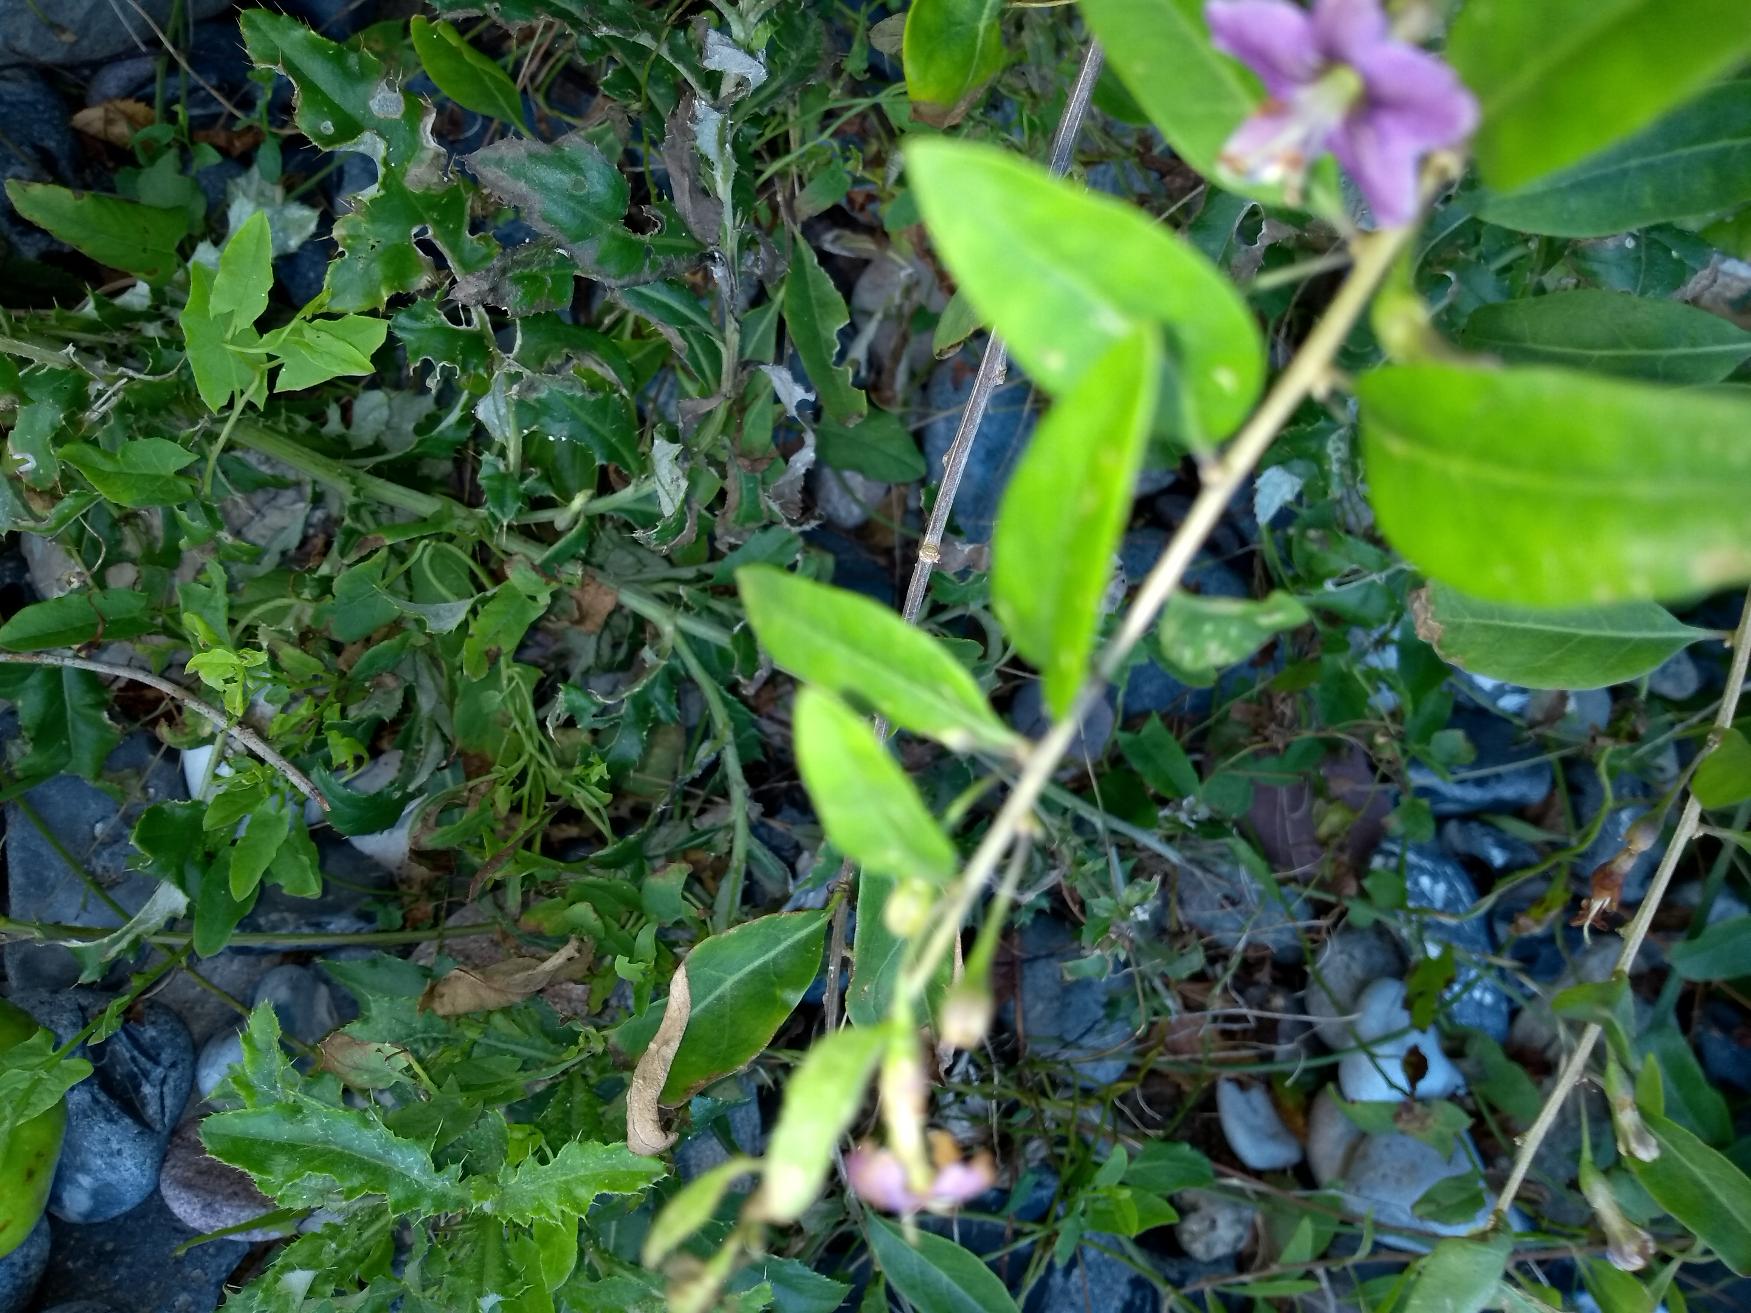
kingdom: Plantae
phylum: Tracheophyta
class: Magnoliopsida
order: Solanales
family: Solanaceae
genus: Lycium
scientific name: Lycium barbarum
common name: Bukketorn
